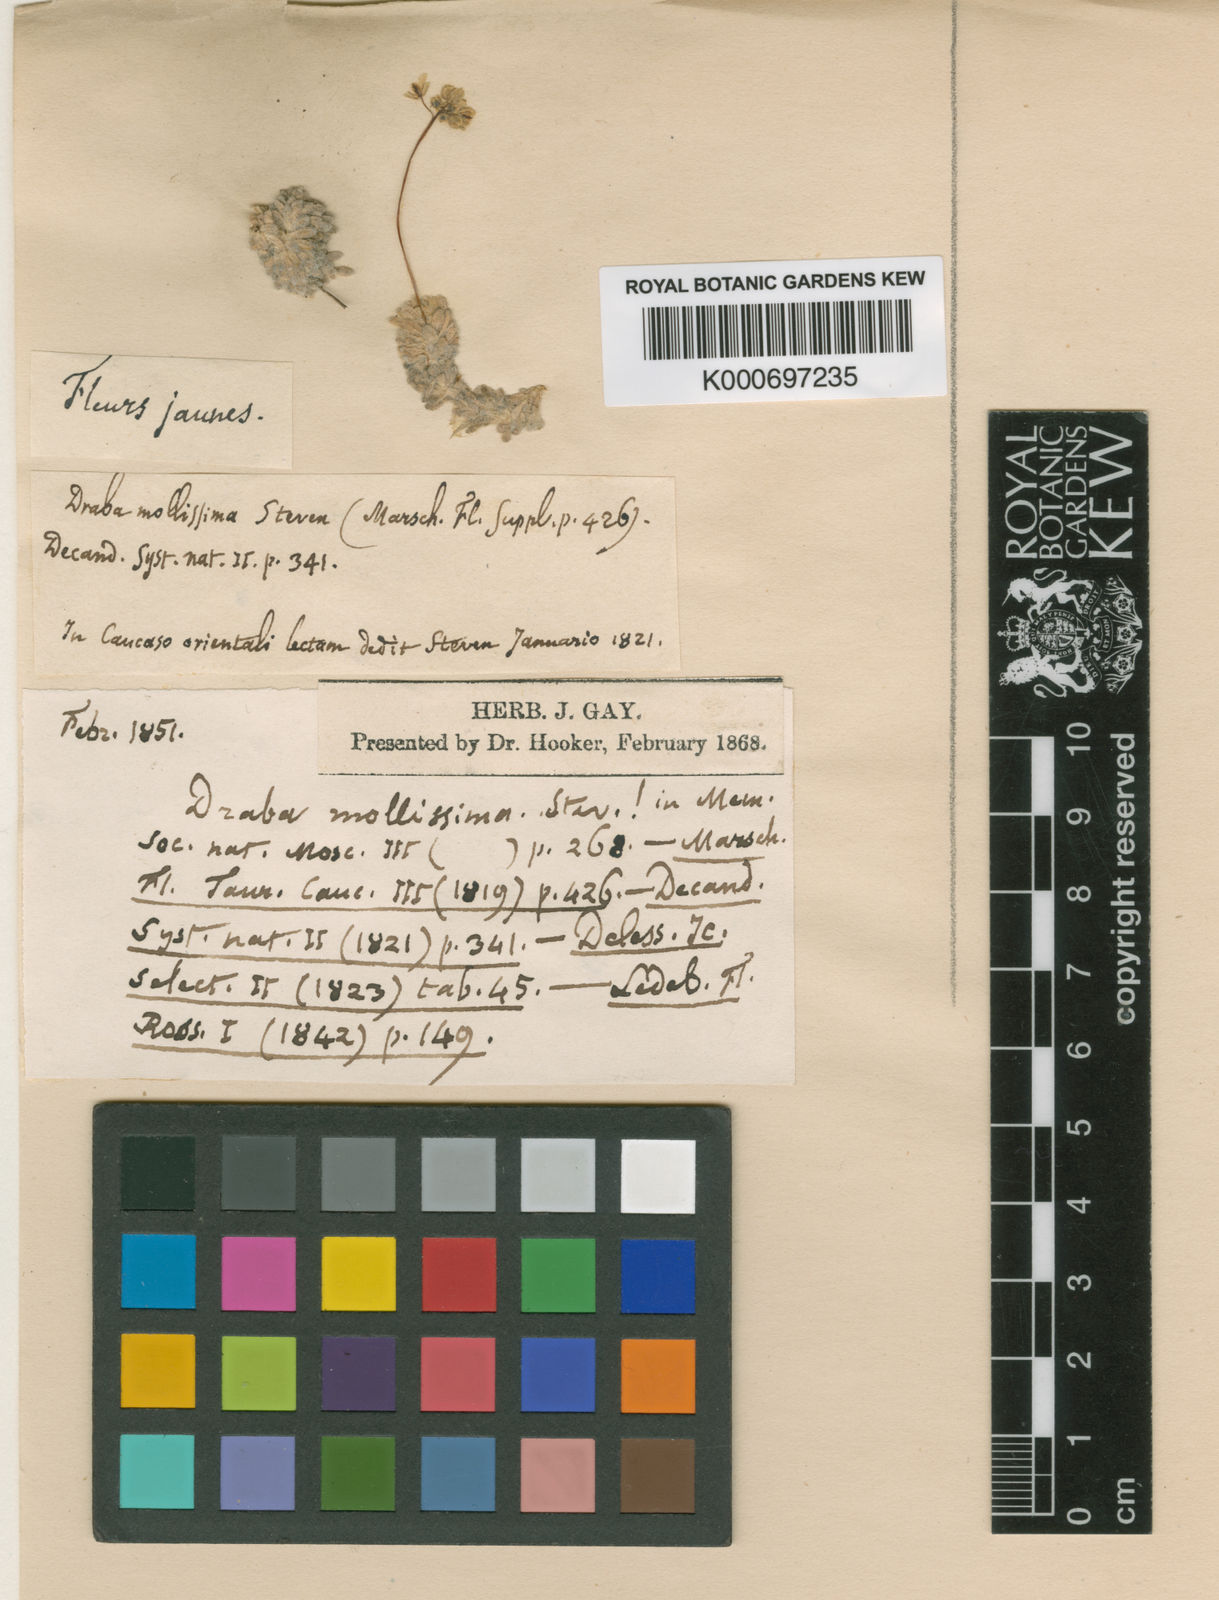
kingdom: Plantae
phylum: Tracheophyta
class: Magnoliopsida
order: Brassicales
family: Brassicaceae
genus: Draba
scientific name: Draba mollissima
